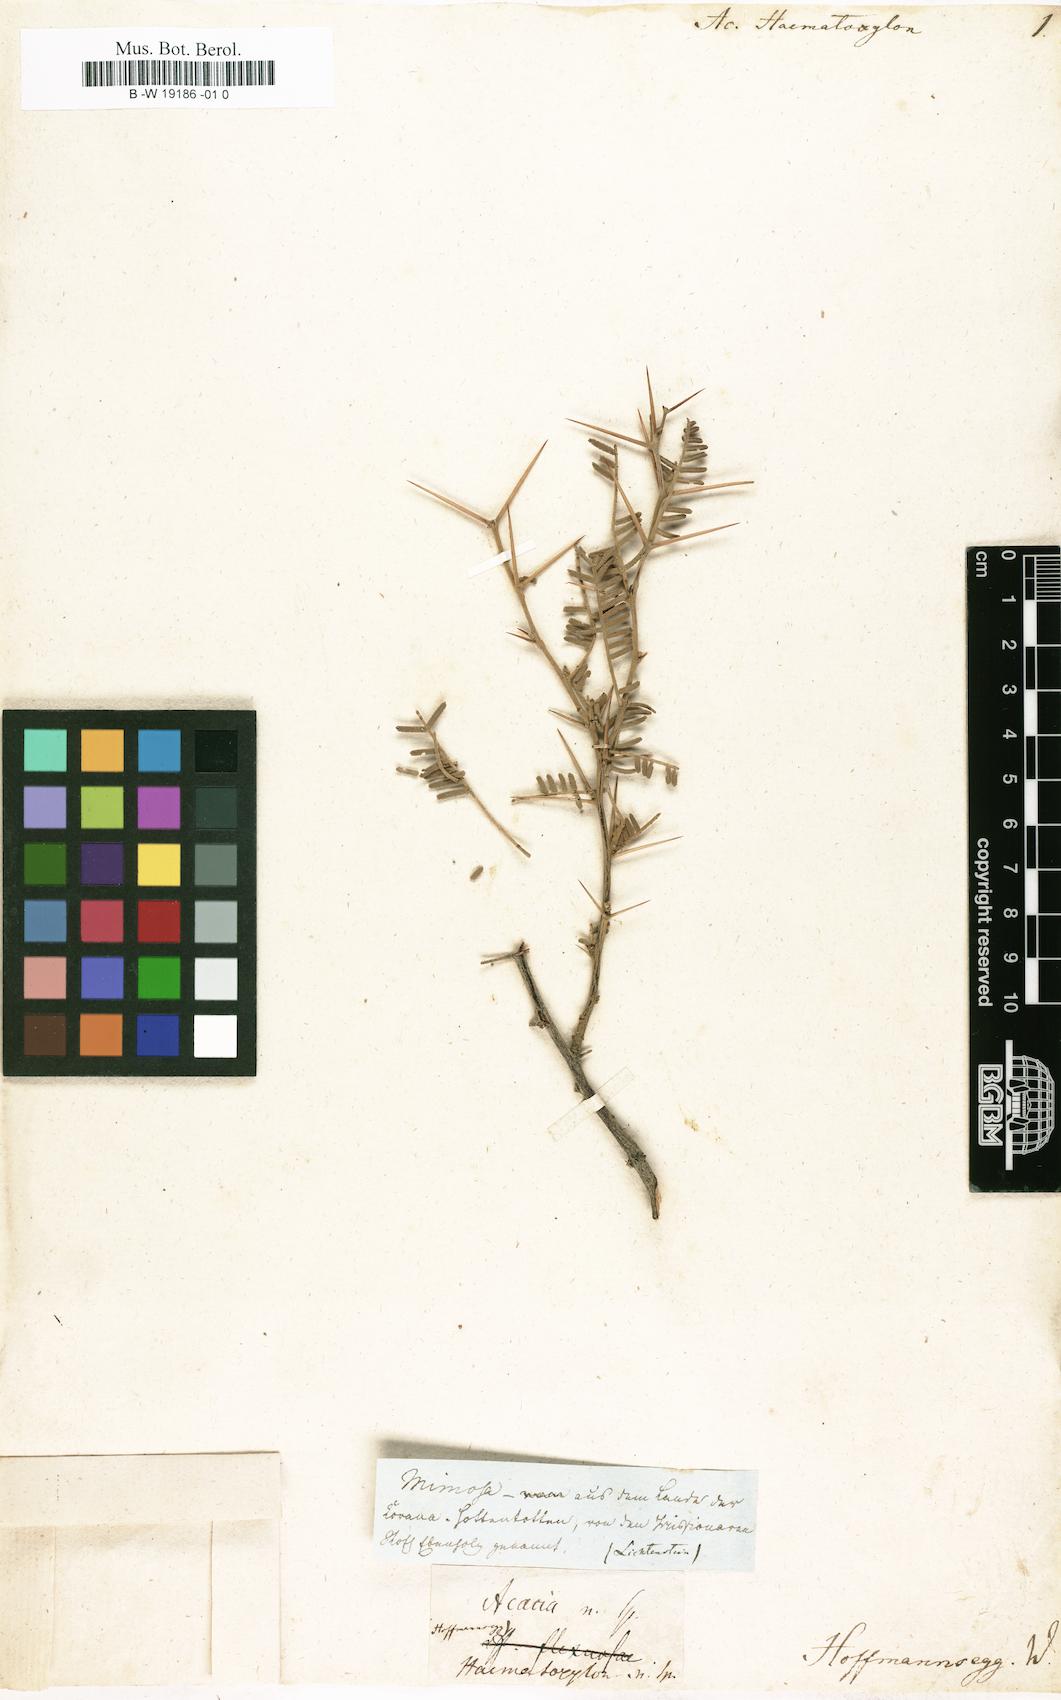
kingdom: Plantae
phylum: Tracheophyta
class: Magnoliopsida
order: Fabales
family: Fabaceae
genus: Vachellia
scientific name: Vachellia haematoxylon
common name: Grey camel thorn
